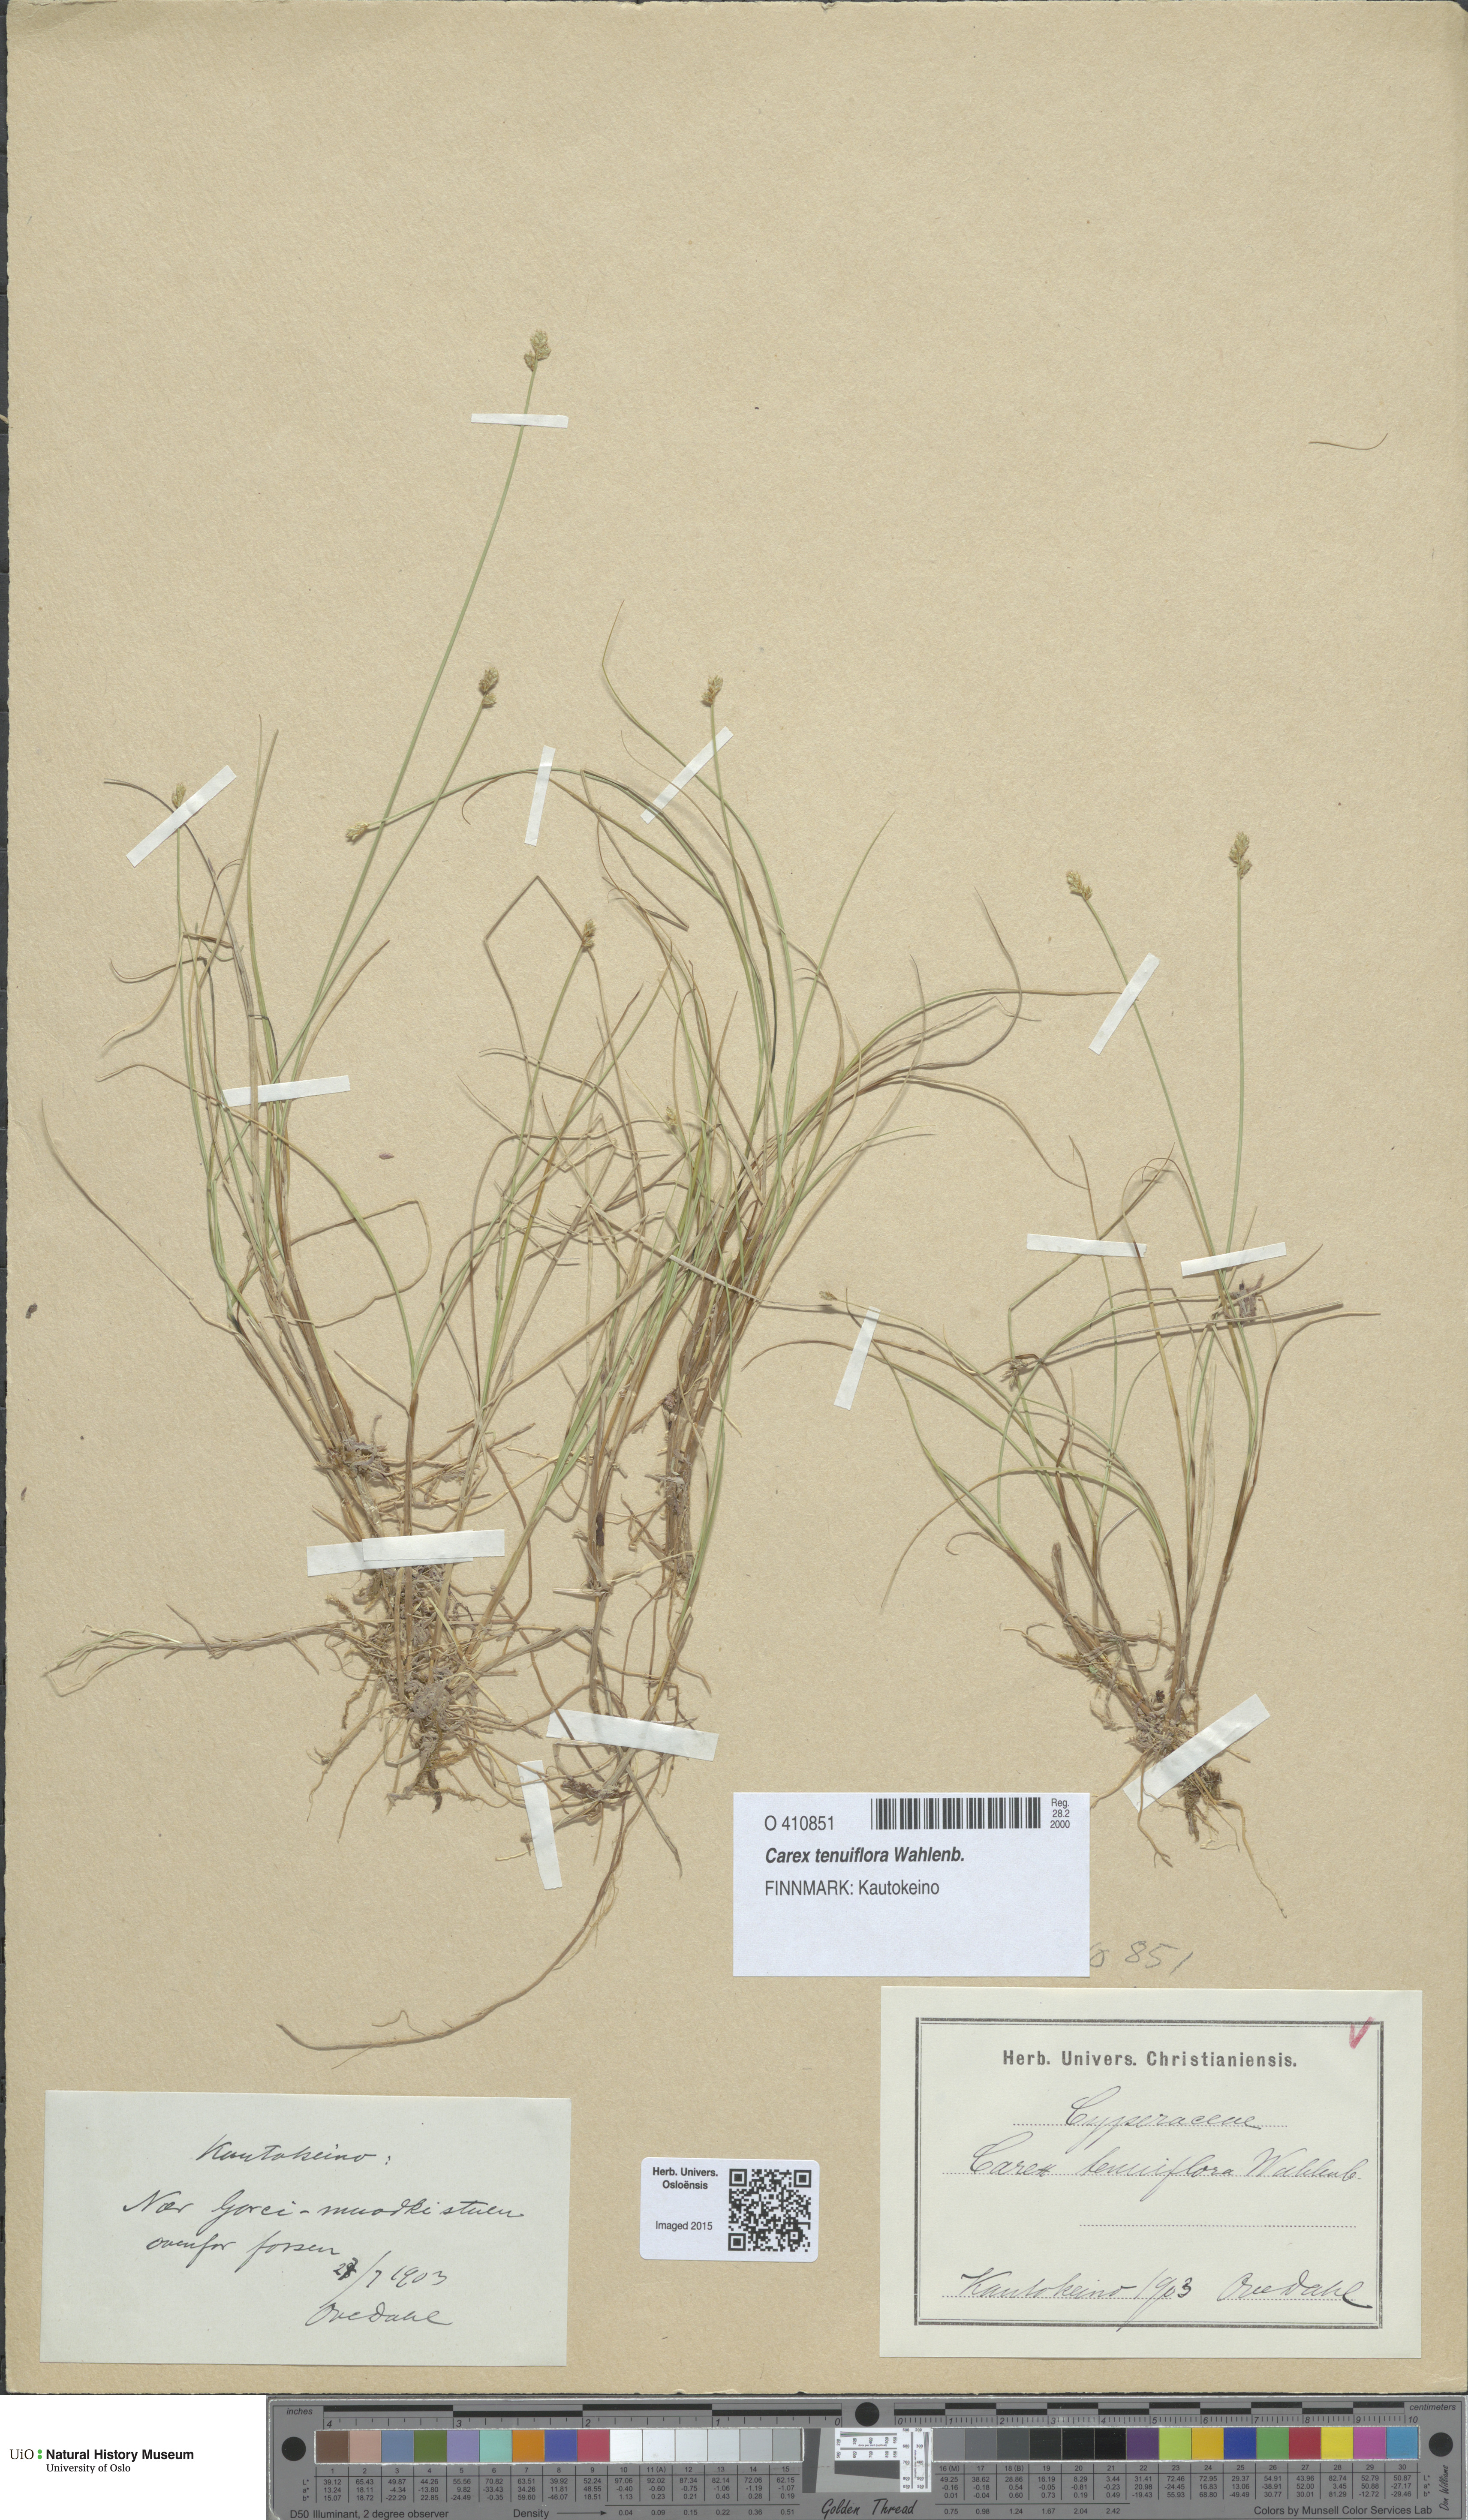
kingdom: Plantae
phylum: Tracheophyta
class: Liliopsida
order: Poales
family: Cyperaceae
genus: Carex
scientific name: Carex tenuiflora
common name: Sparse-flowered sedge
